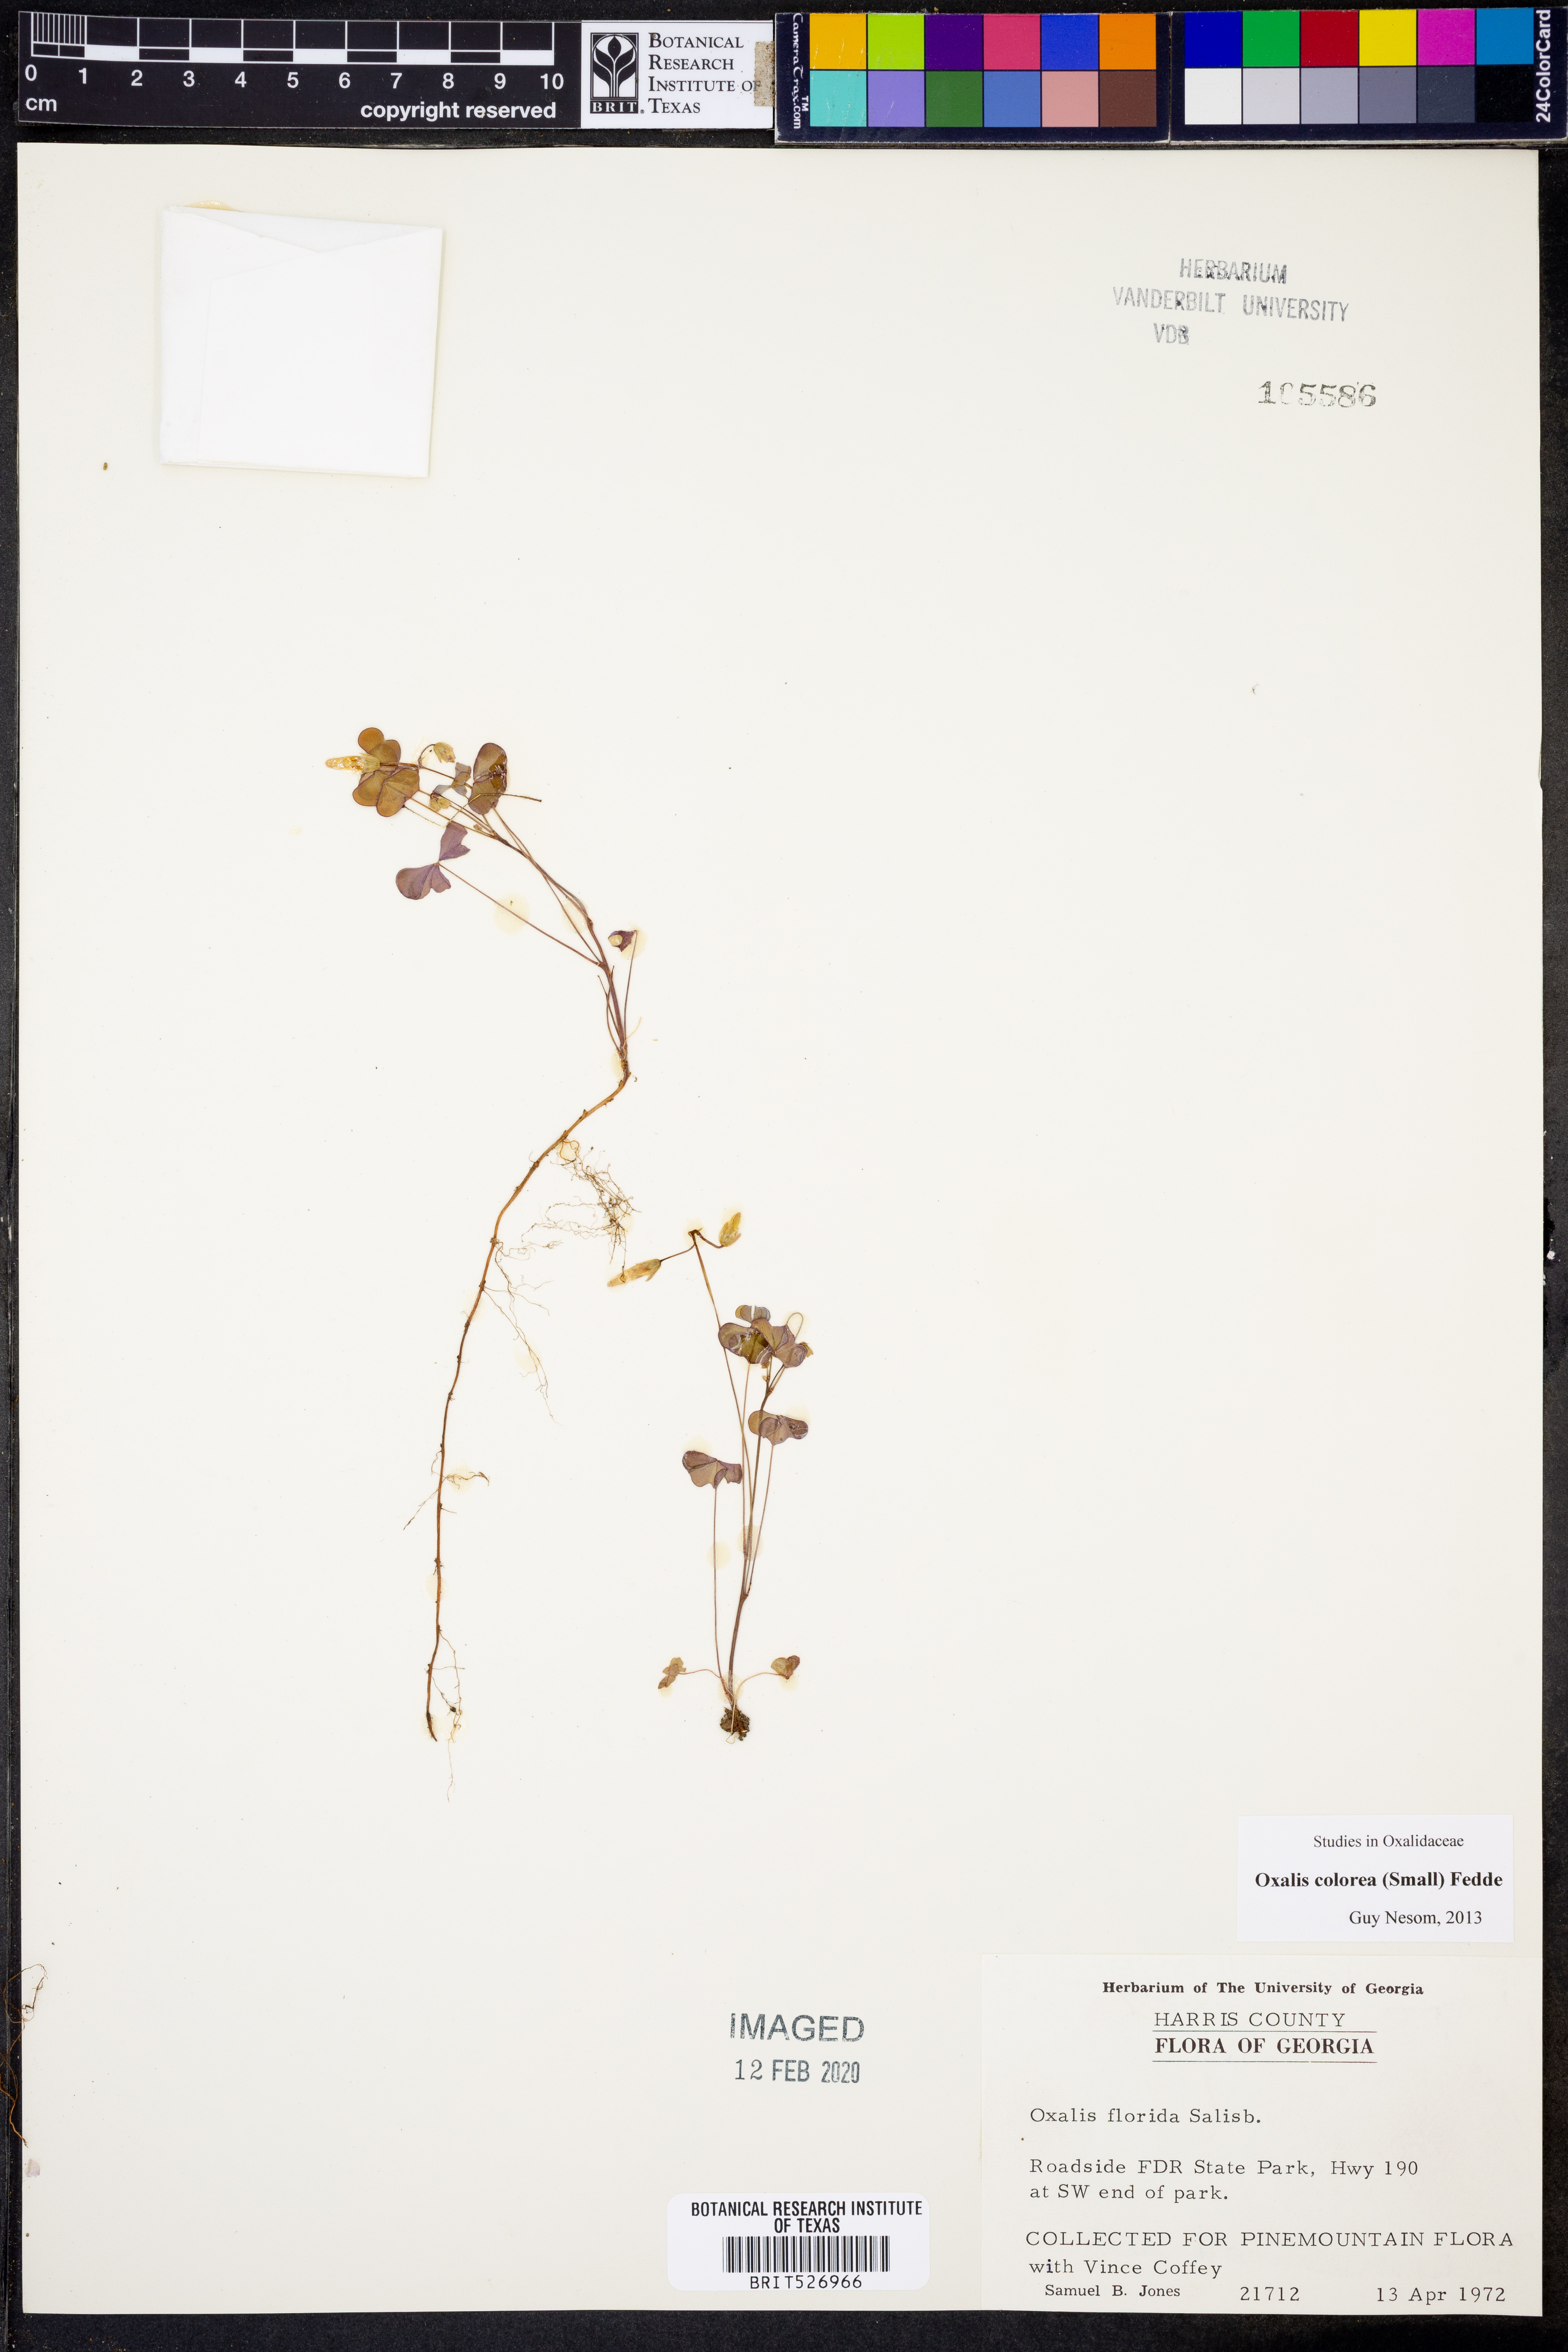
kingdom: Plantae
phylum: Tracheophyta
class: Magnoliopsida
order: Oxalidales
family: Oxalidaceae
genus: Oxalis
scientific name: Oxalis colorea
